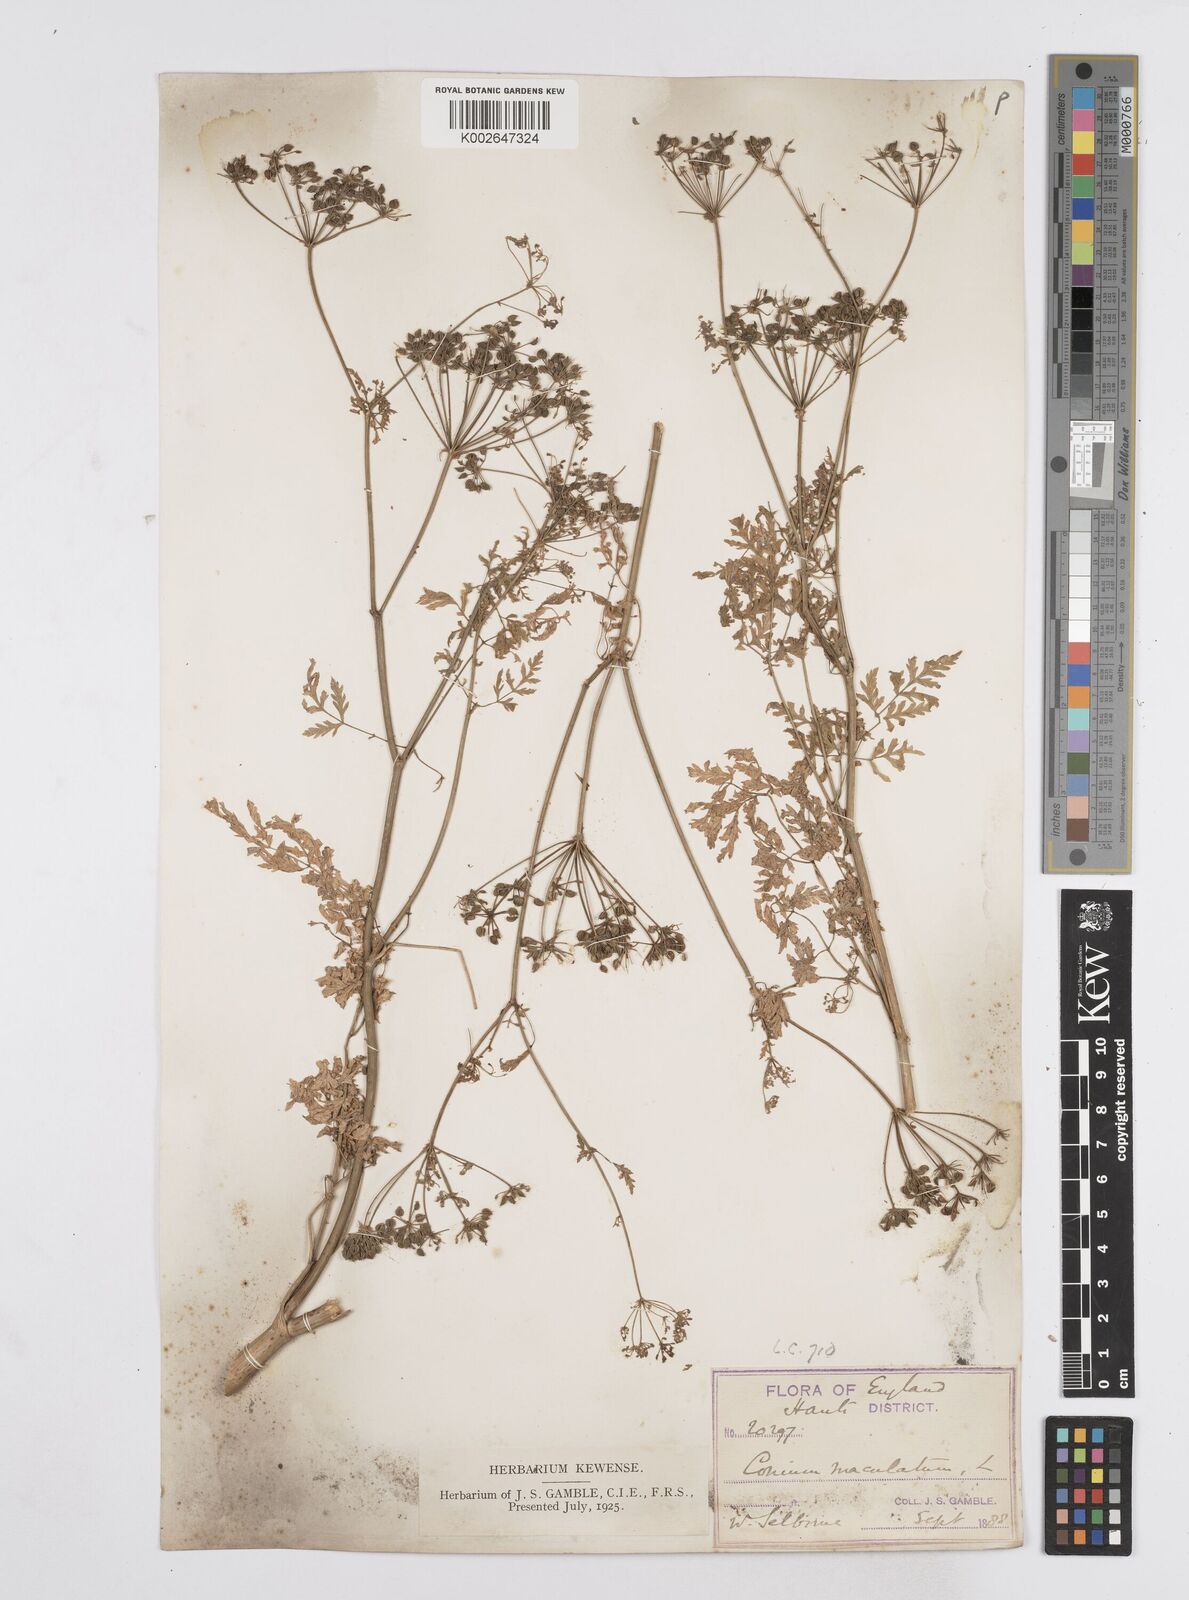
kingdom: Plantae
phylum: Tracheophyta
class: Magnoliopsida
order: Apiales
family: Apiaceae
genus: Conium
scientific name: Conium maculatum
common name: Hemlock
